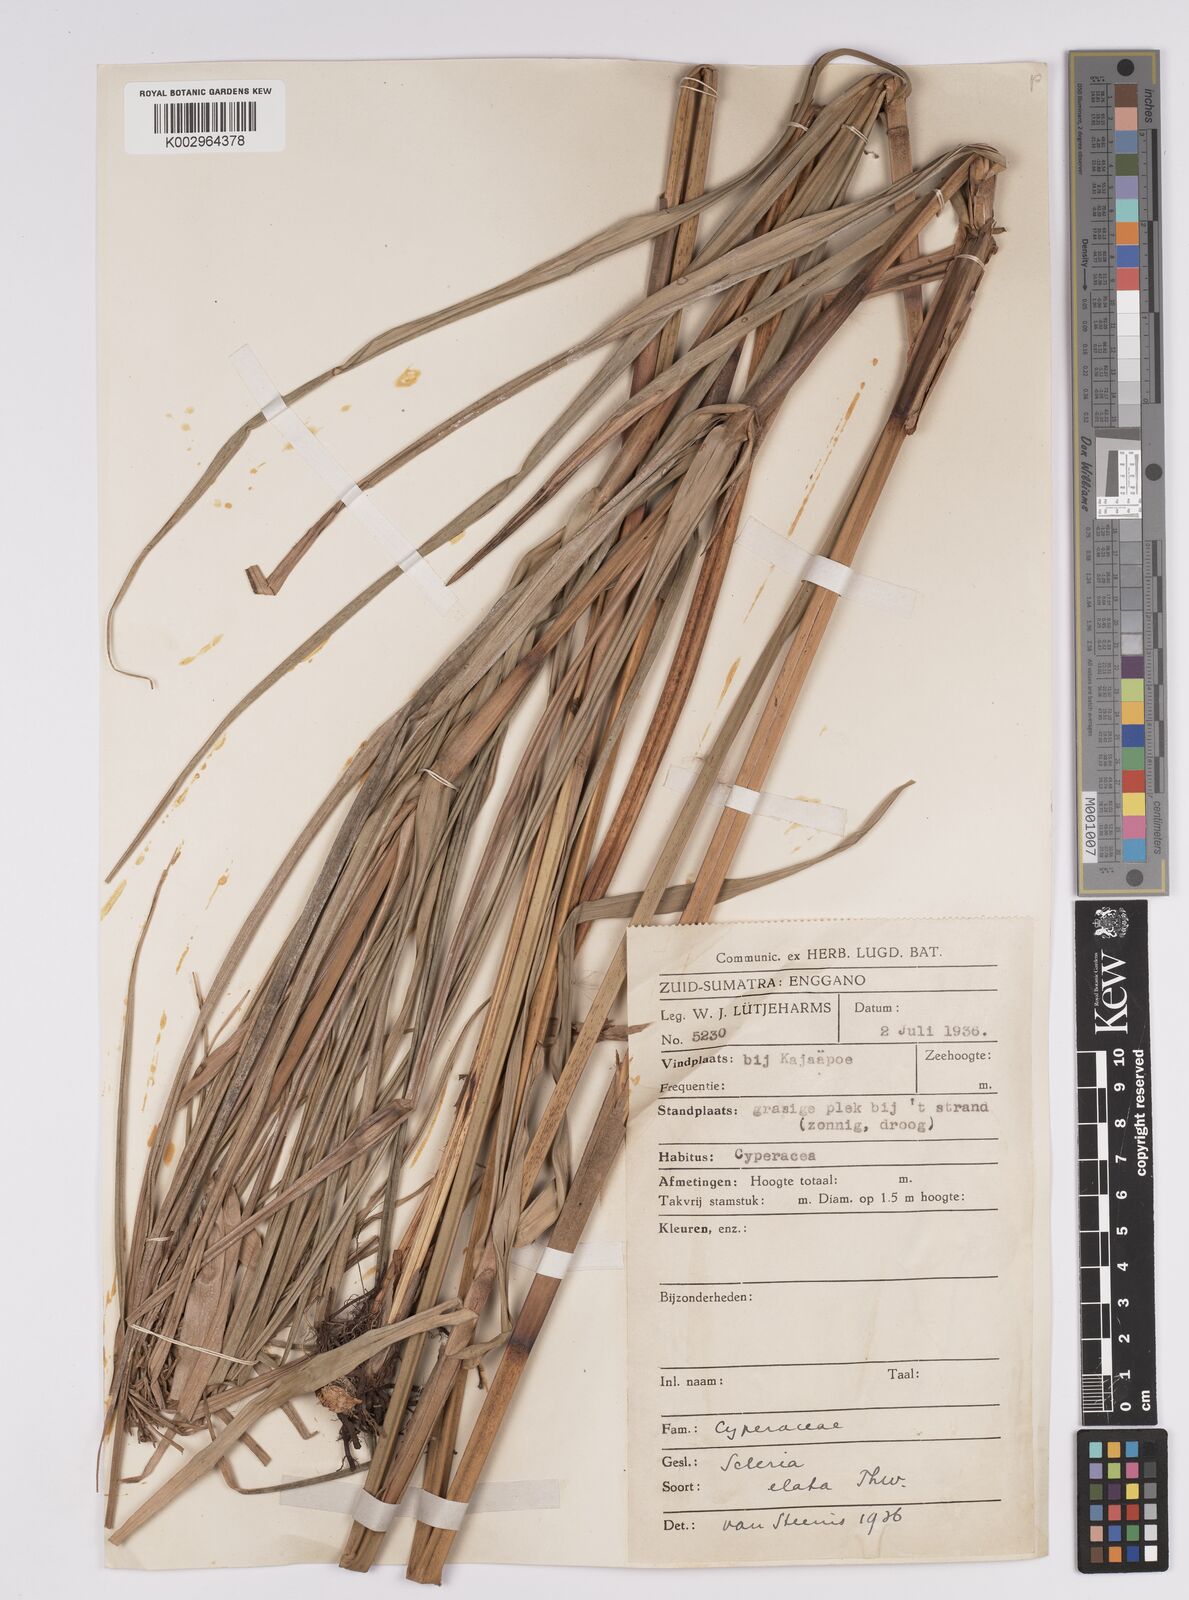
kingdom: Plantae
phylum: Tracheophyta
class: Liliopsida
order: Poales
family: Cyperaceae
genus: Scleria
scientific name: Scleria terrestris
